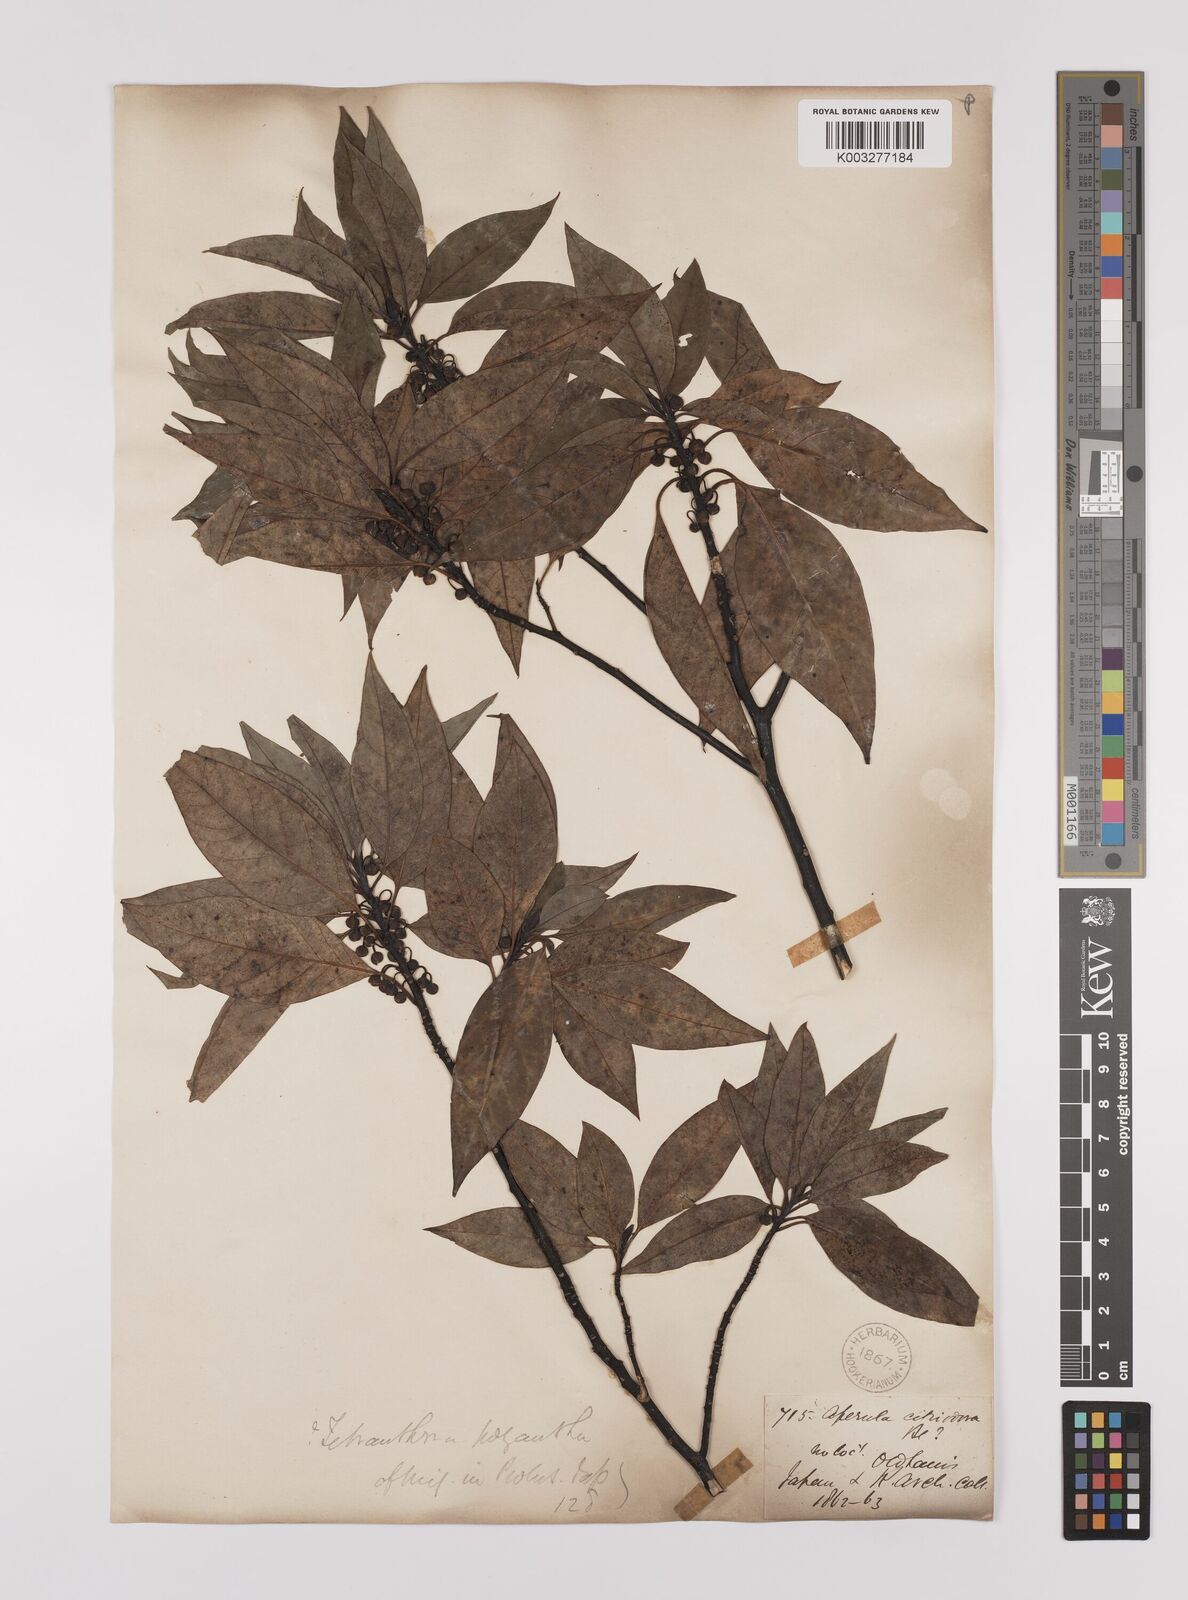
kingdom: Plantae
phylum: Tracheophyta
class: Magnoliopsida
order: Laurales
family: Lauraceae
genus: Lindera
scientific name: Lindera citriodora
